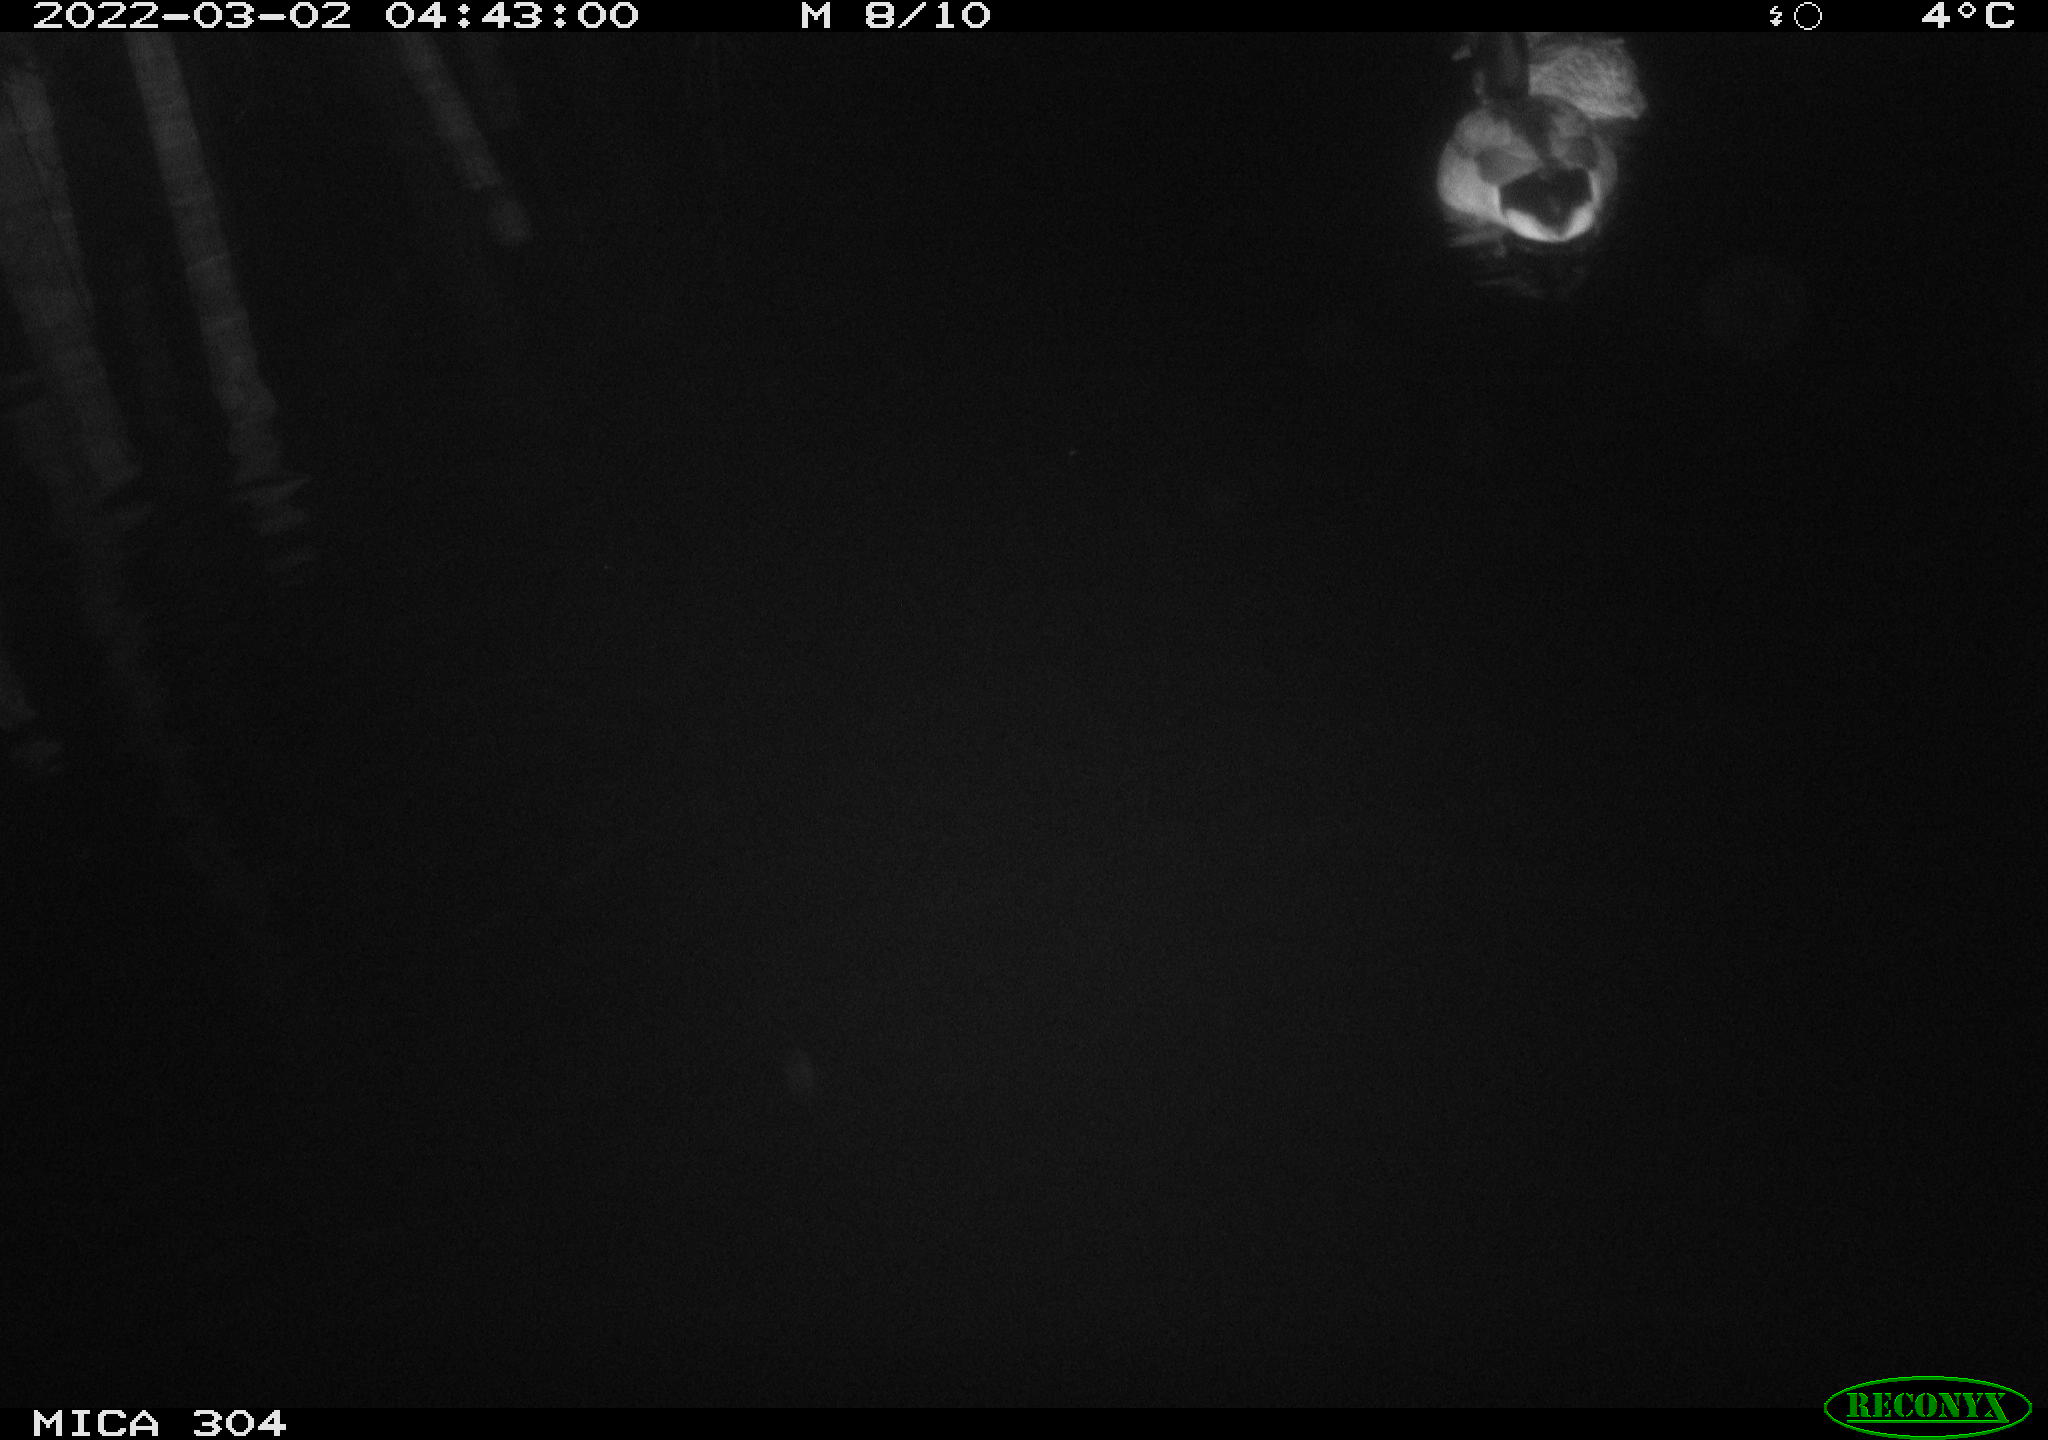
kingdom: Animalia
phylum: Chordata
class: Aves
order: Anseriformes
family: Anatidae
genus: Anas
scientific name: Anas platyrhynchos
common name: Mallard
